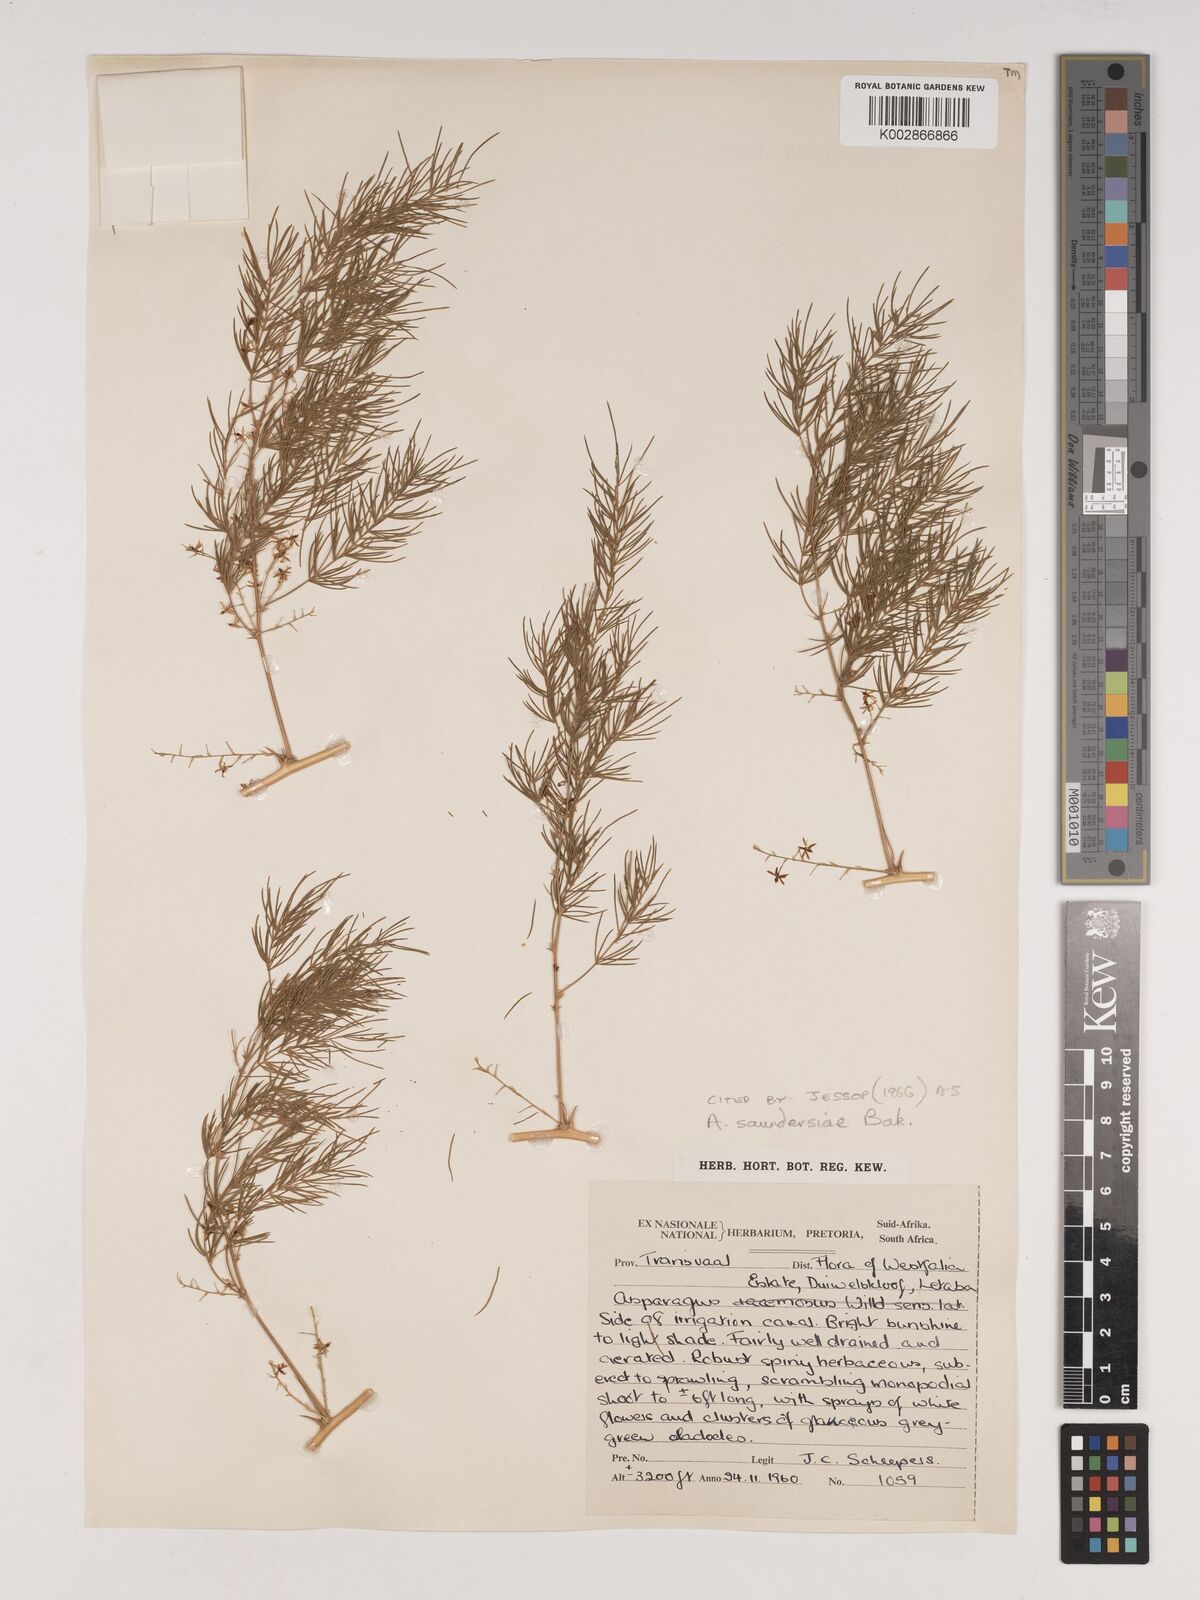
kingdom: Plantae
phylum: Tracheophyta
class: Liliopsida
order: Asparagales
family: Asparagaceae
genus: Asparagus
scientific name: Asparagus saundersiae
